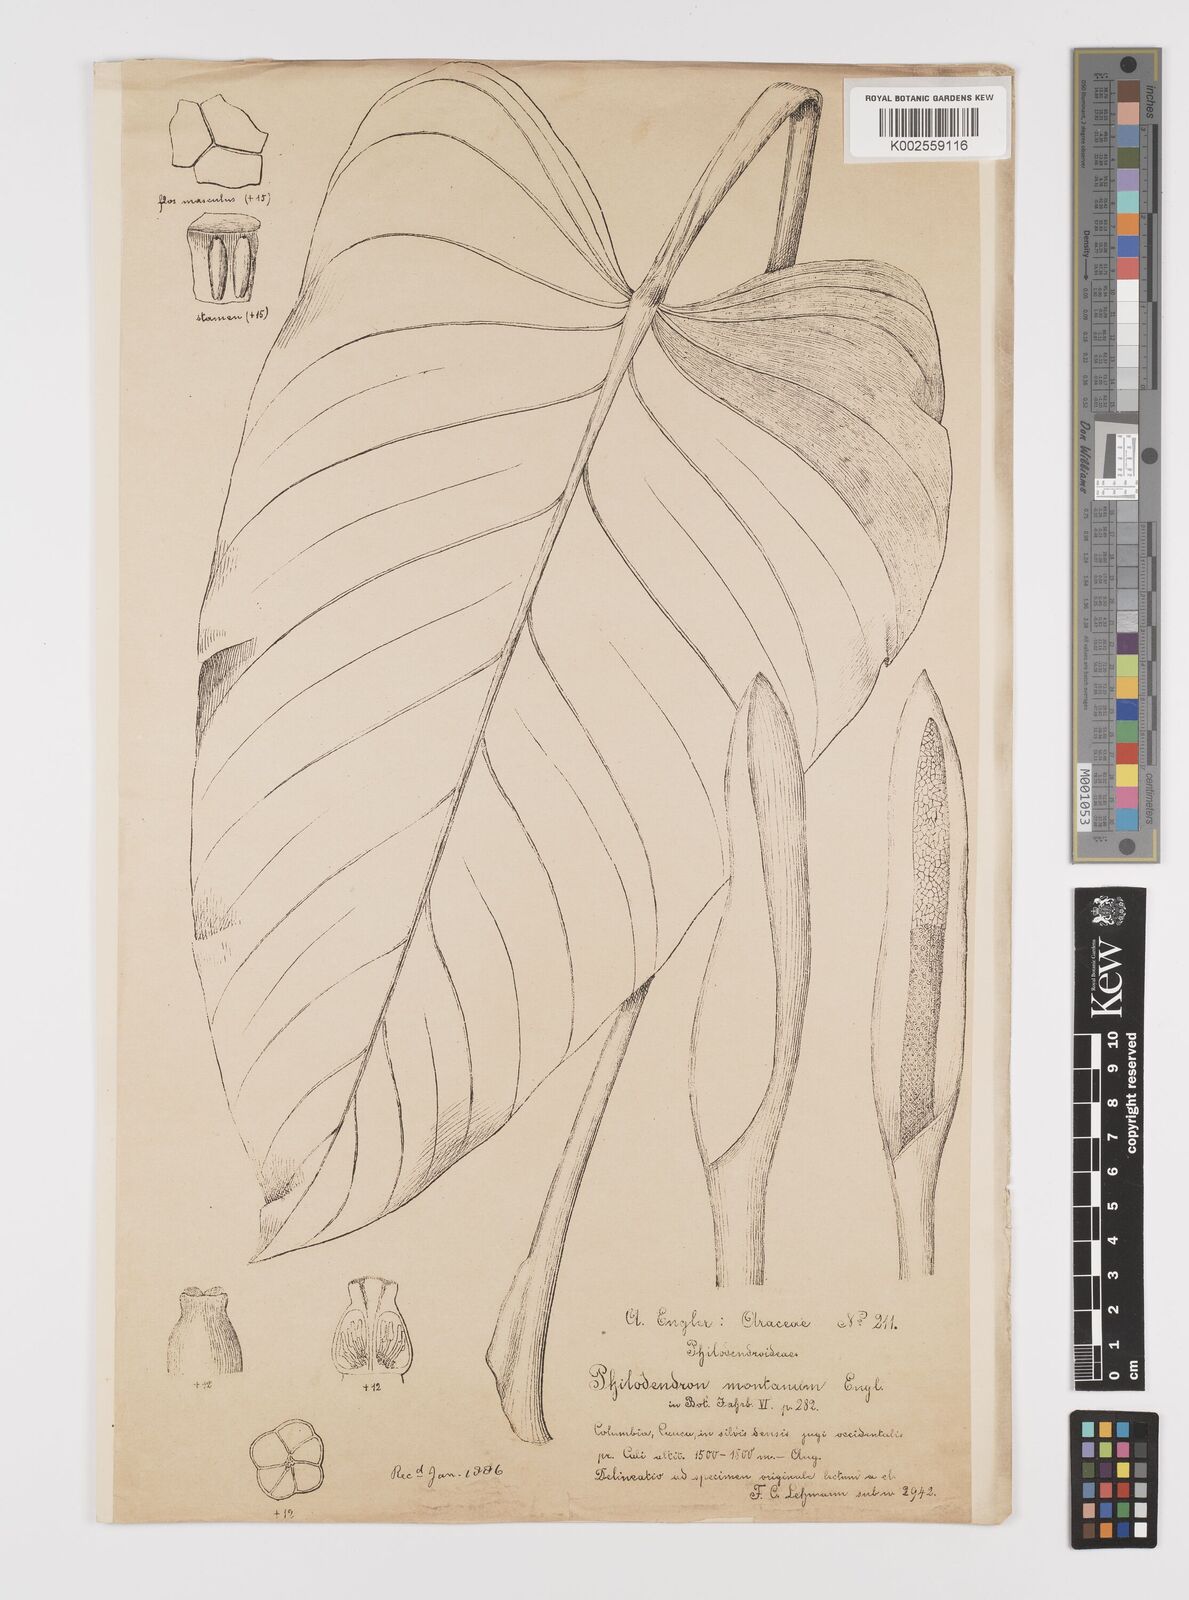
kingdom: Plantae
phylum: Tracheophyta
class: Liliopsida
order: Alismatales
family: Araceae
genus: Philodendron
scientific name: Philodendron montanum
